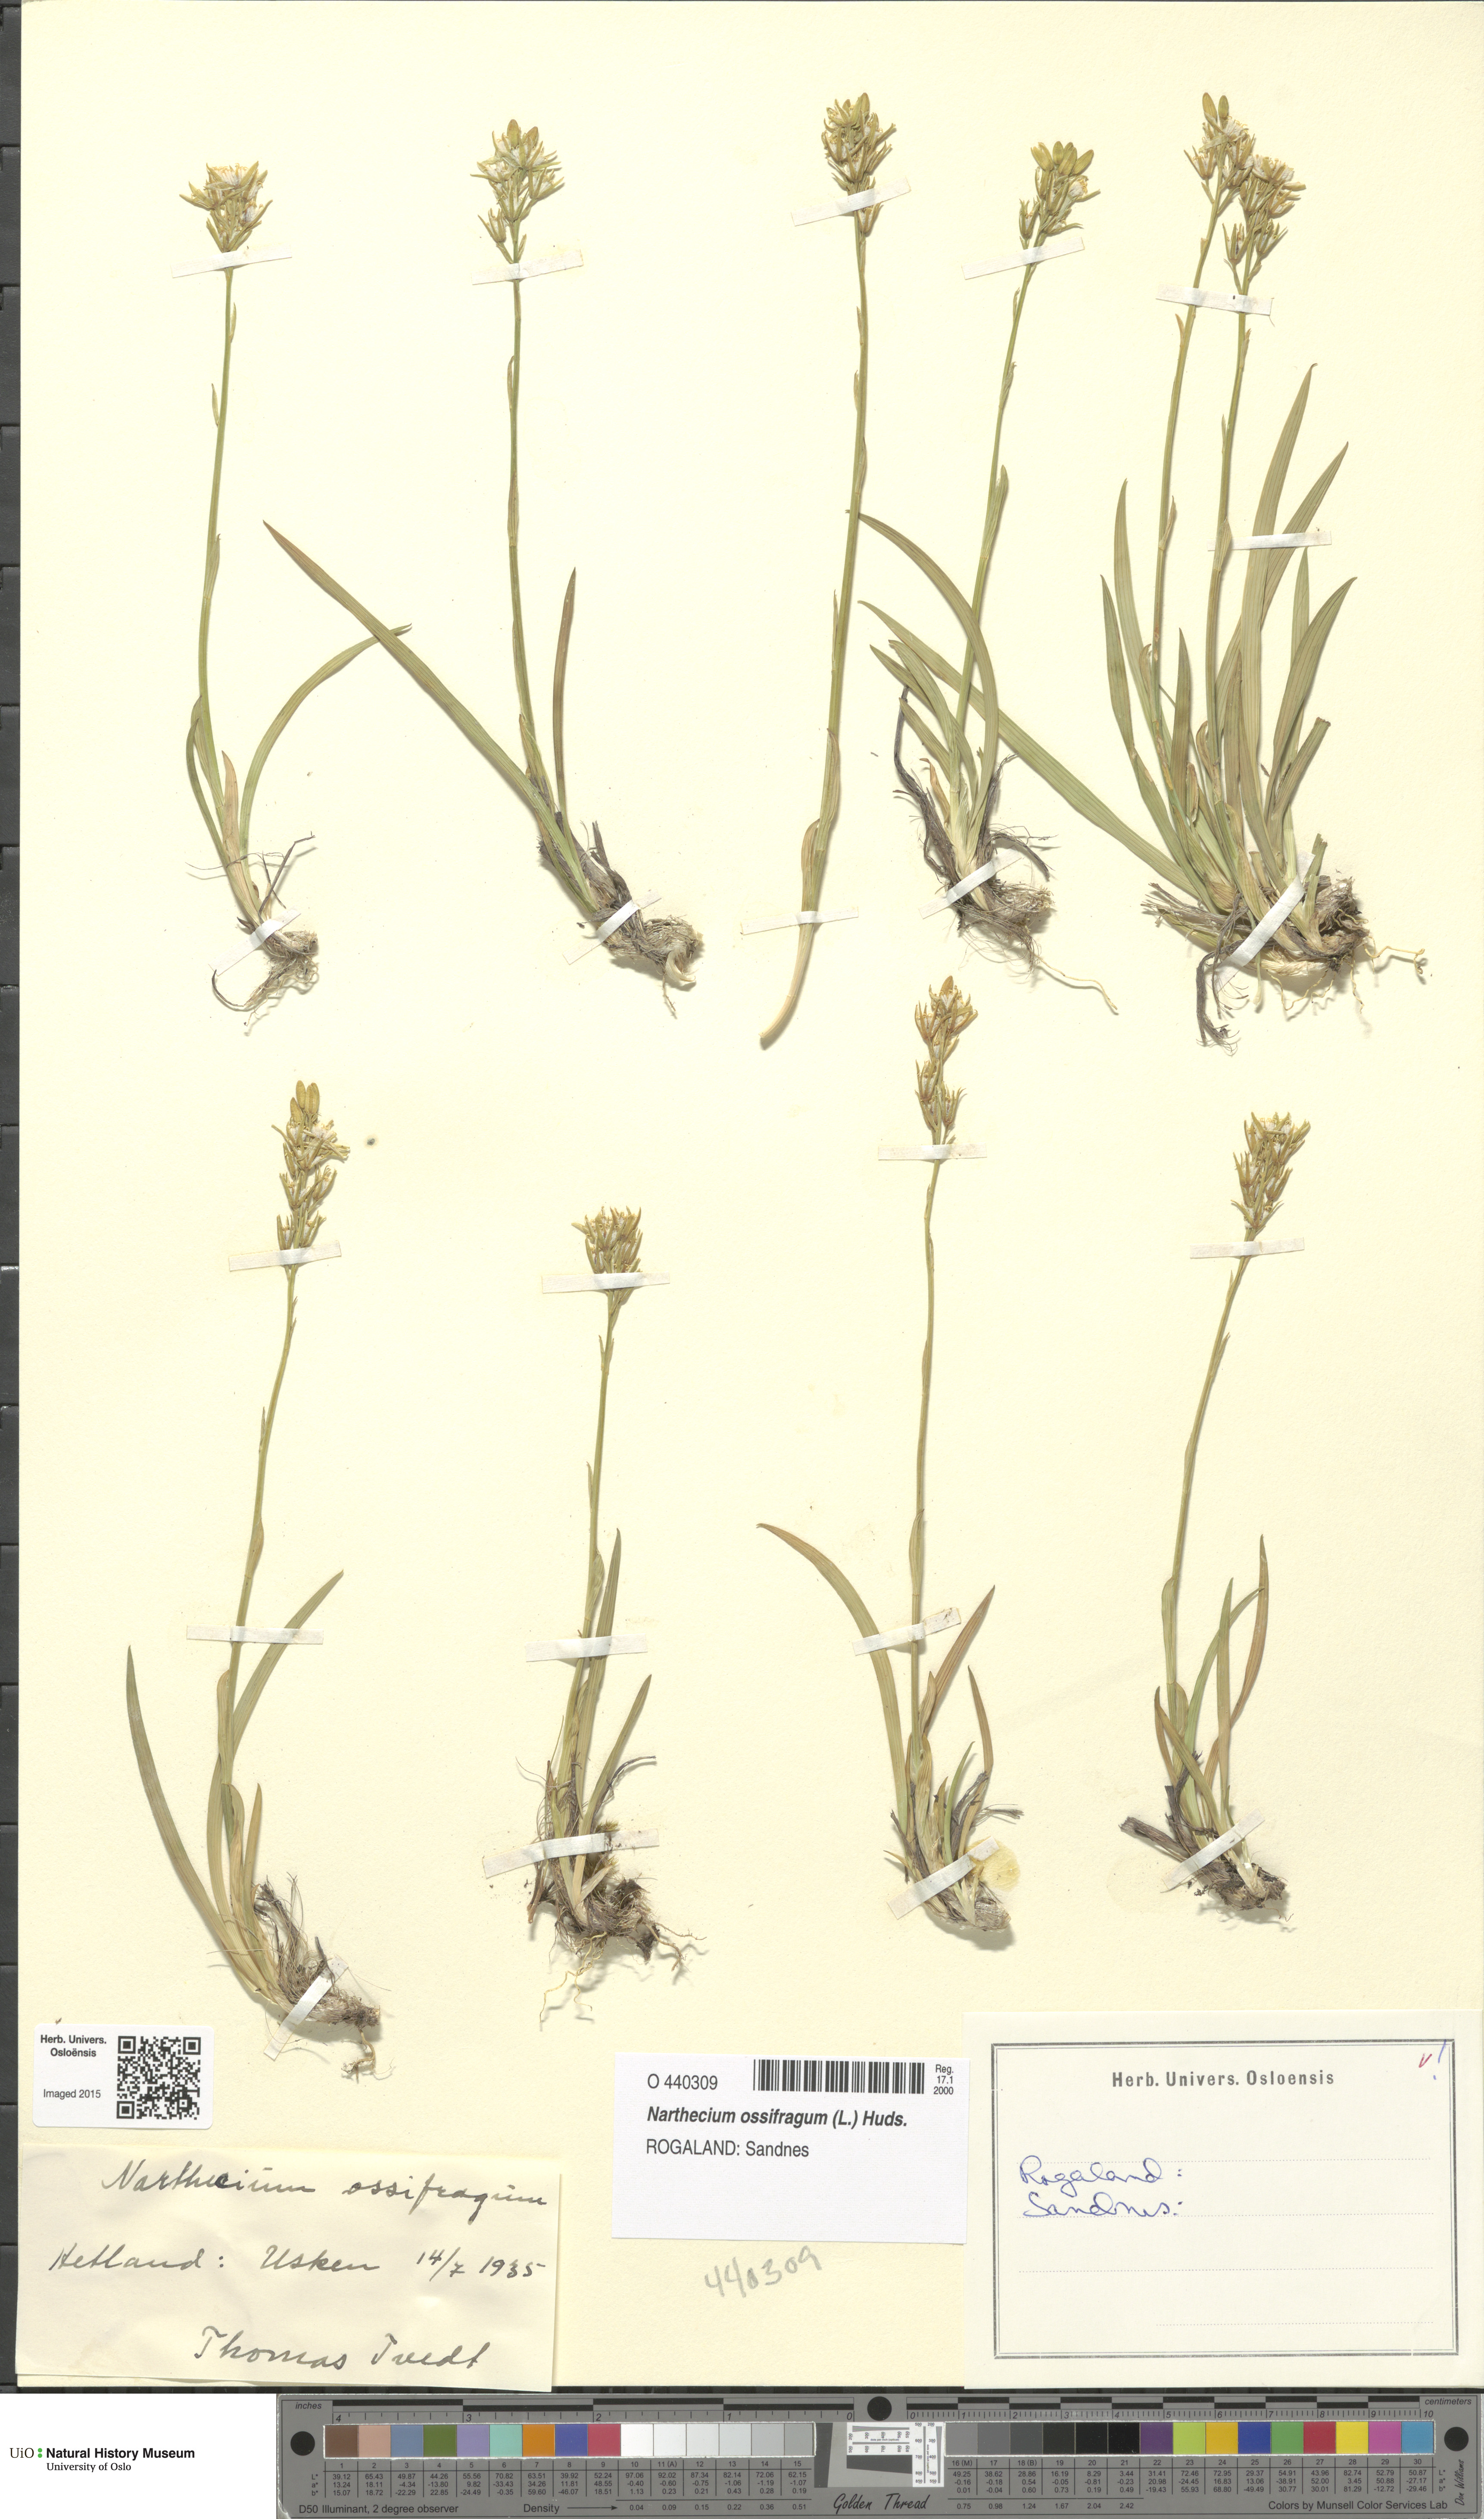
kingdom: Plantae
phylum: Tracheophyta
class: Liliopsida
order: Dioscoreales
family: Nartheciaceae
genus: Narthecium
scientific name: Narthecium ossifragum
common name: Bog asphodel
